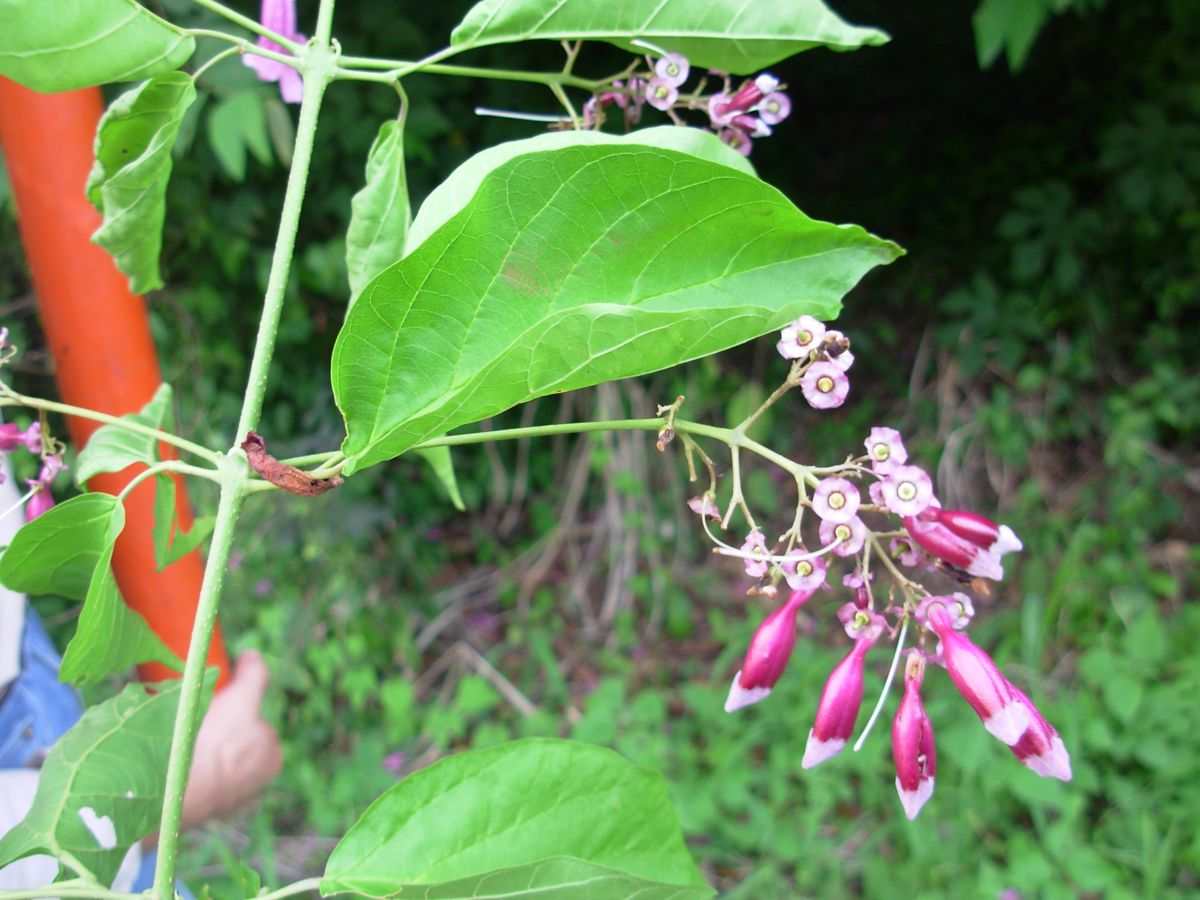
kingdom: Plantae
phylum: Tracheophyta
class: Magnoliopsida
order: Lamiales
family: Bignoniaceae
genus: Fridericia
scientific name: Fridericia patellifera
